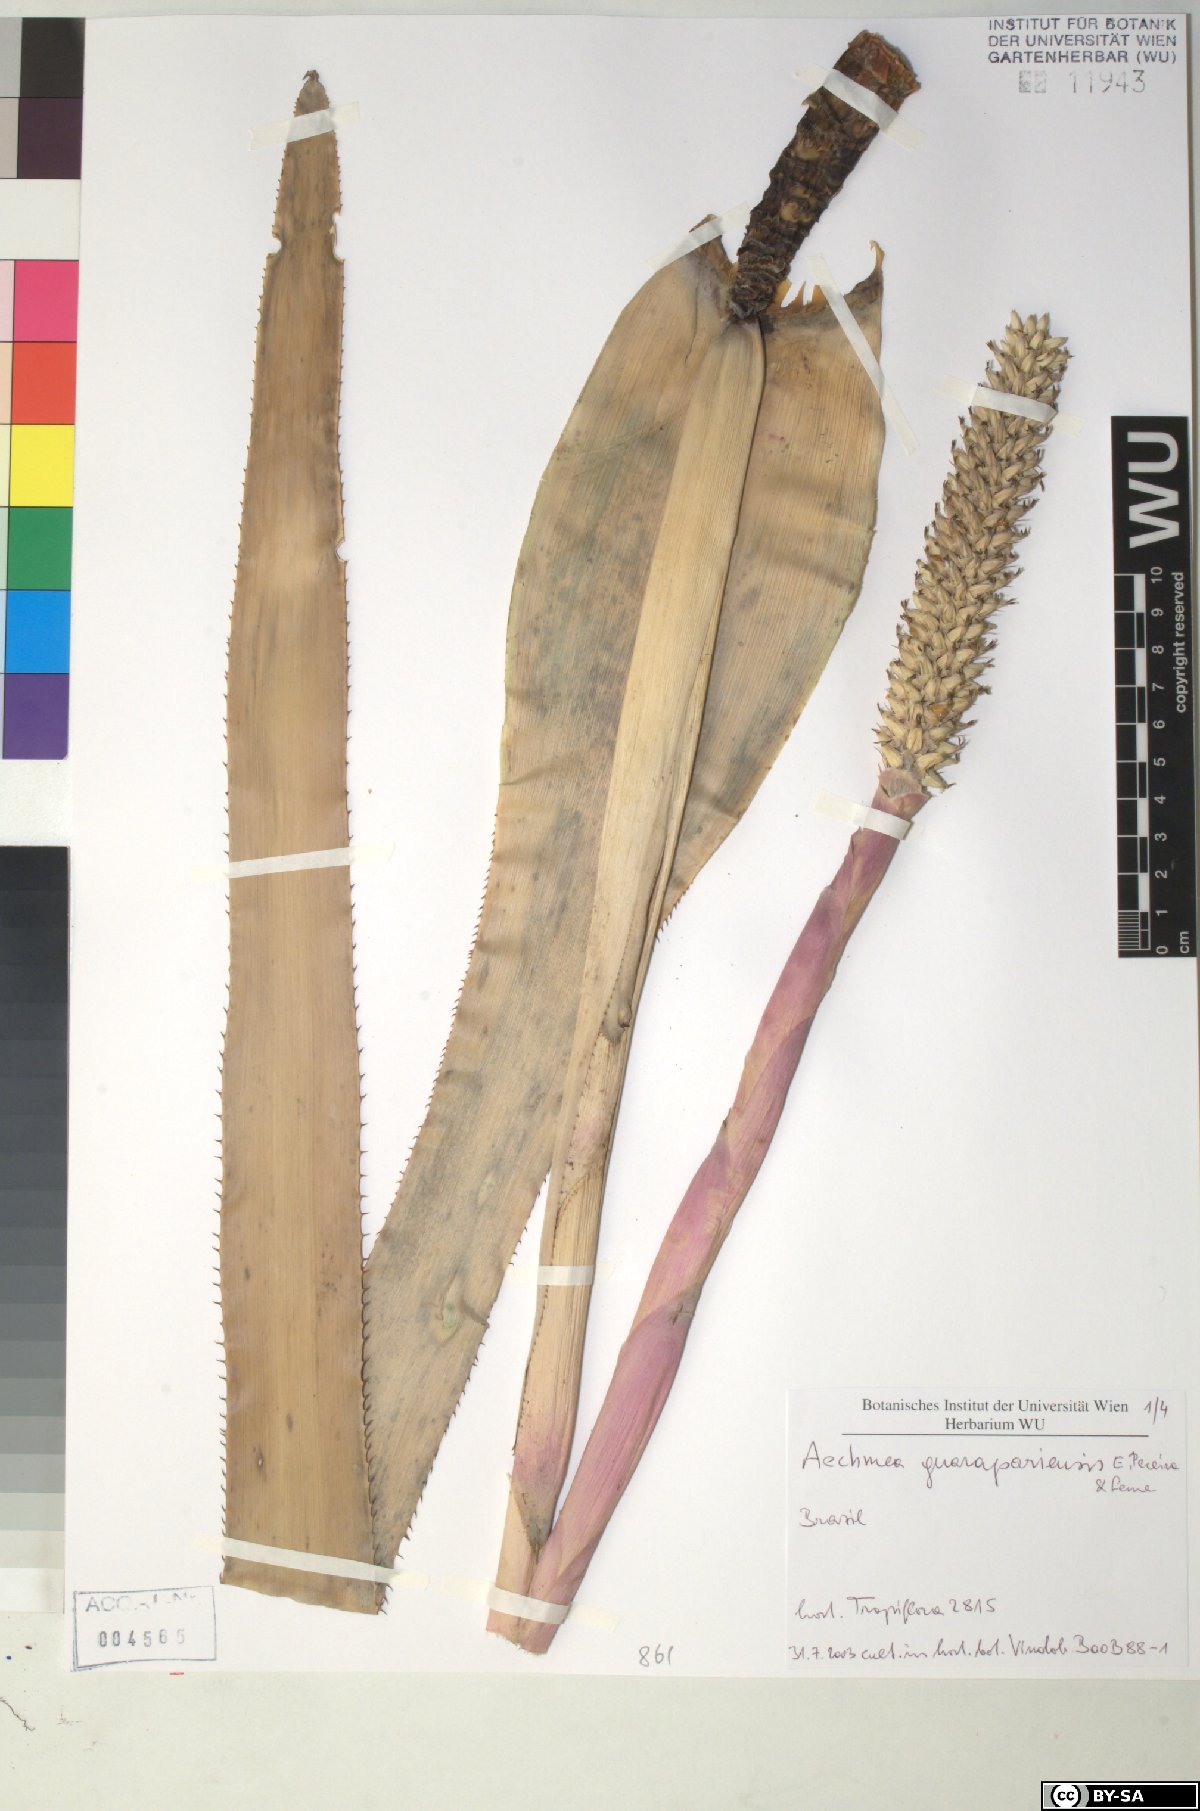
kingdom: Plantae
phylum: Tracheophyta
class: Liliopsida
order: Poales
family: Bromeliaceae
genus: Aechmea
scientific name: Aechmea roberto-seidelii
